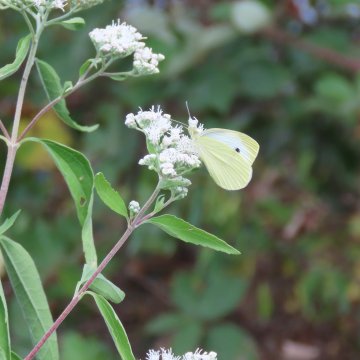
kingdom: Animalia
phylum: Arthropoda
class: Insecta
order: Lepidoptera
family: Pieridae
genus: Pieris
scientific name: Pieris rapae
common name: Cabbage White
